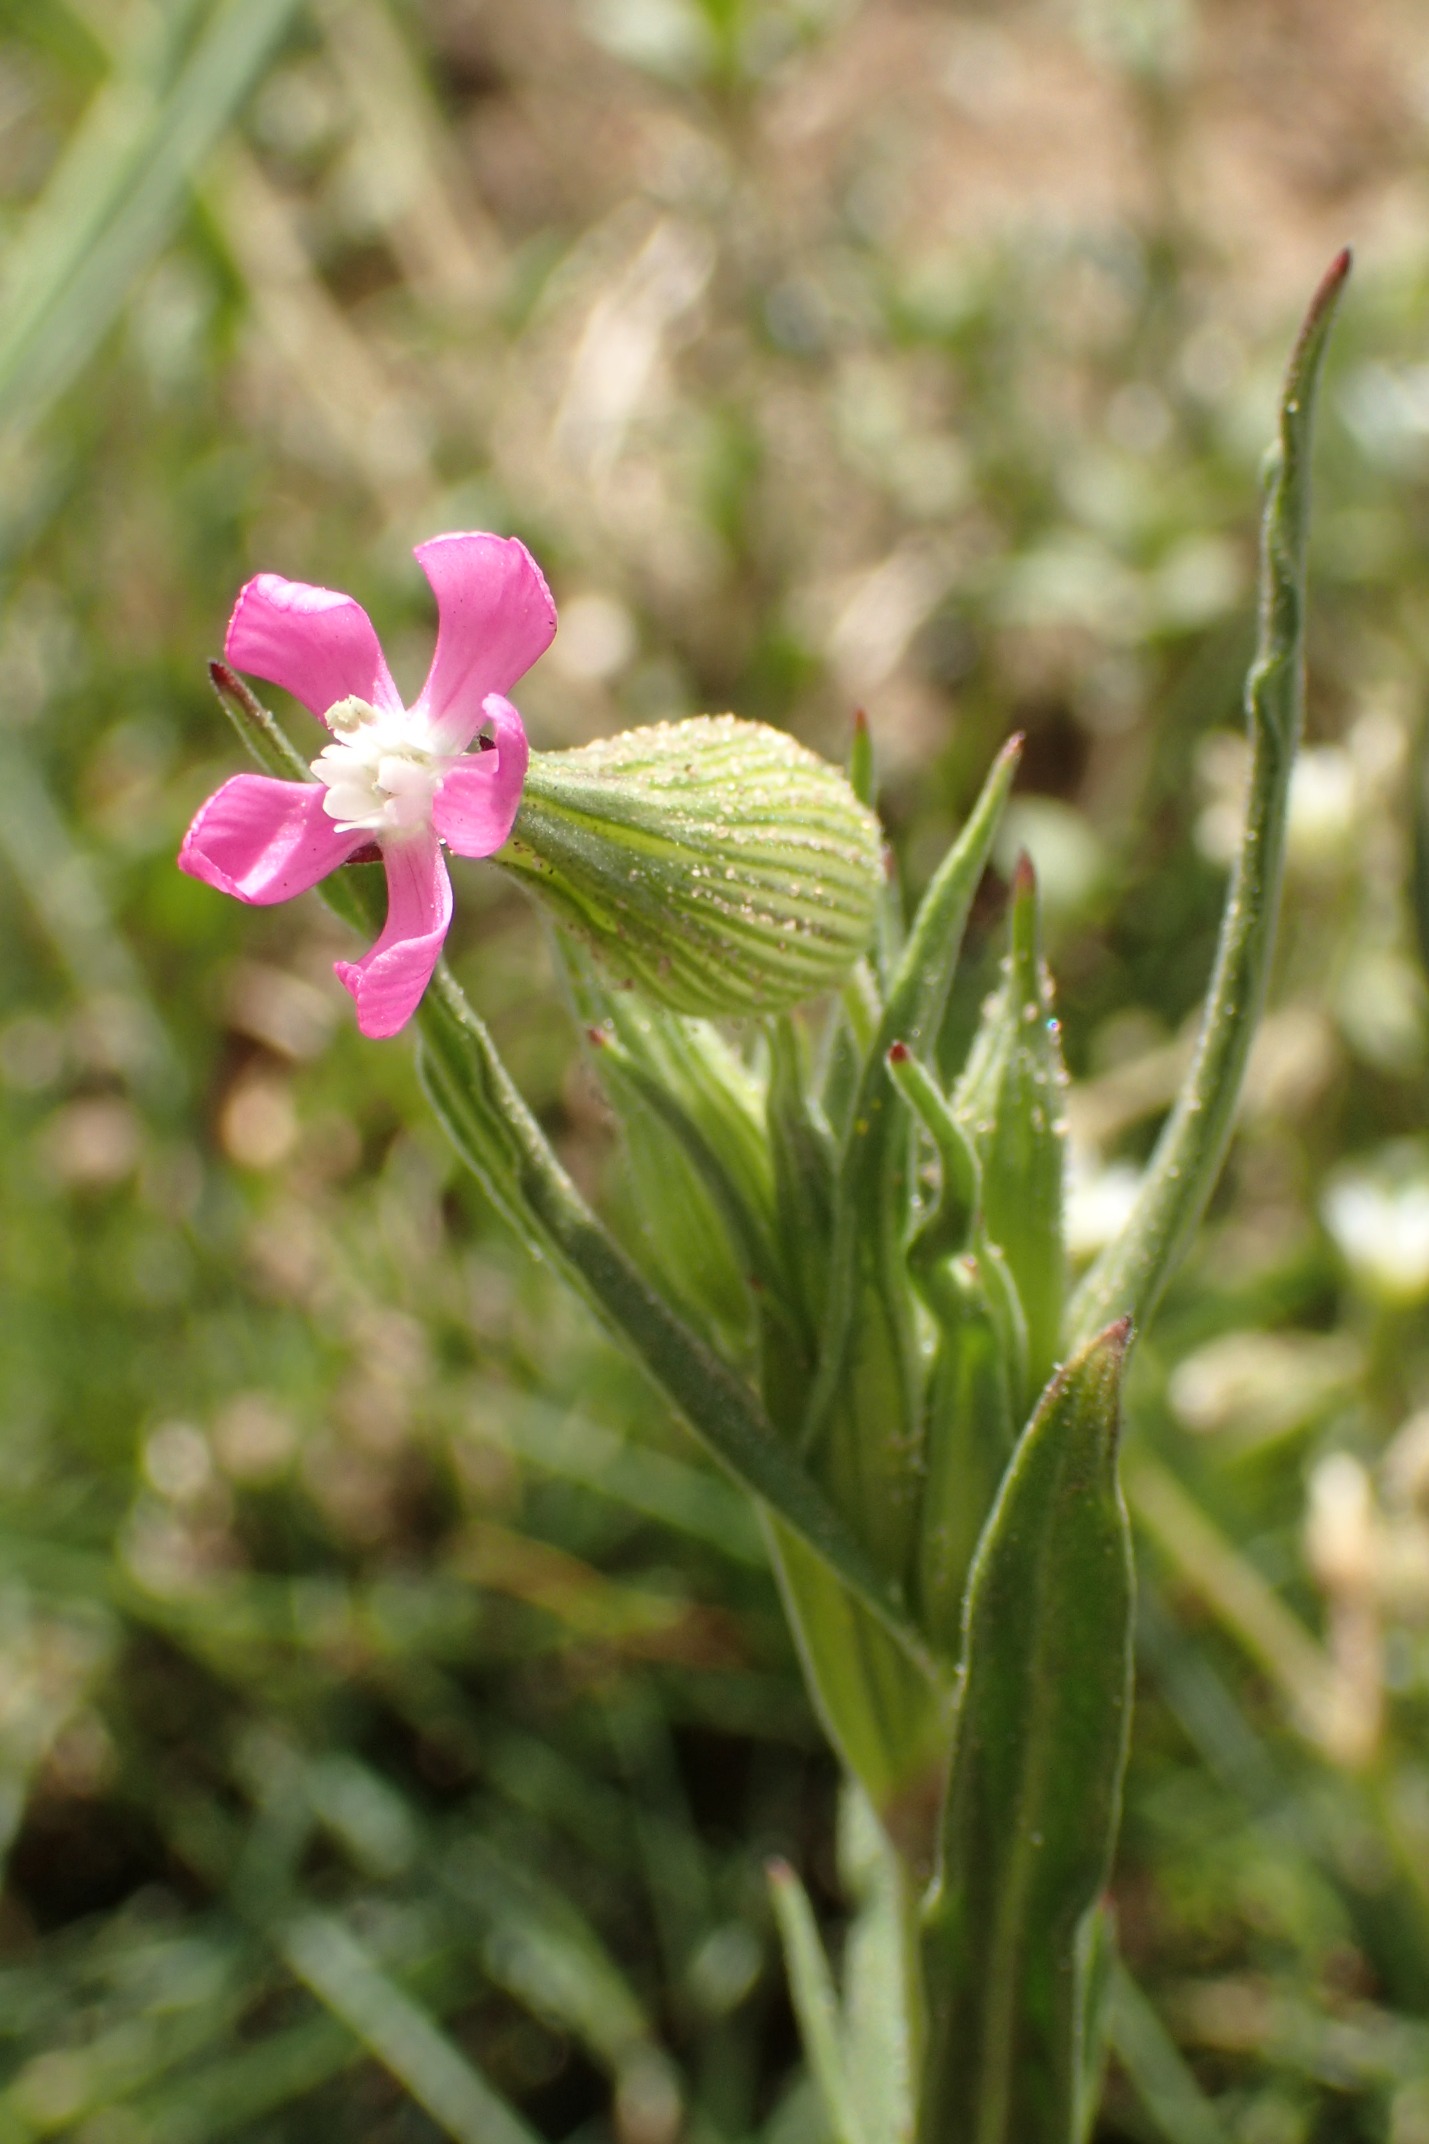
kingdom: Plantae
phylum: Tracheophyta
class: Magnoliopsida
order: Caryophyllales
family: Caryophyllaceae
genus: Silene
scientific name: Silene conica
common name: Kegle-limurt
